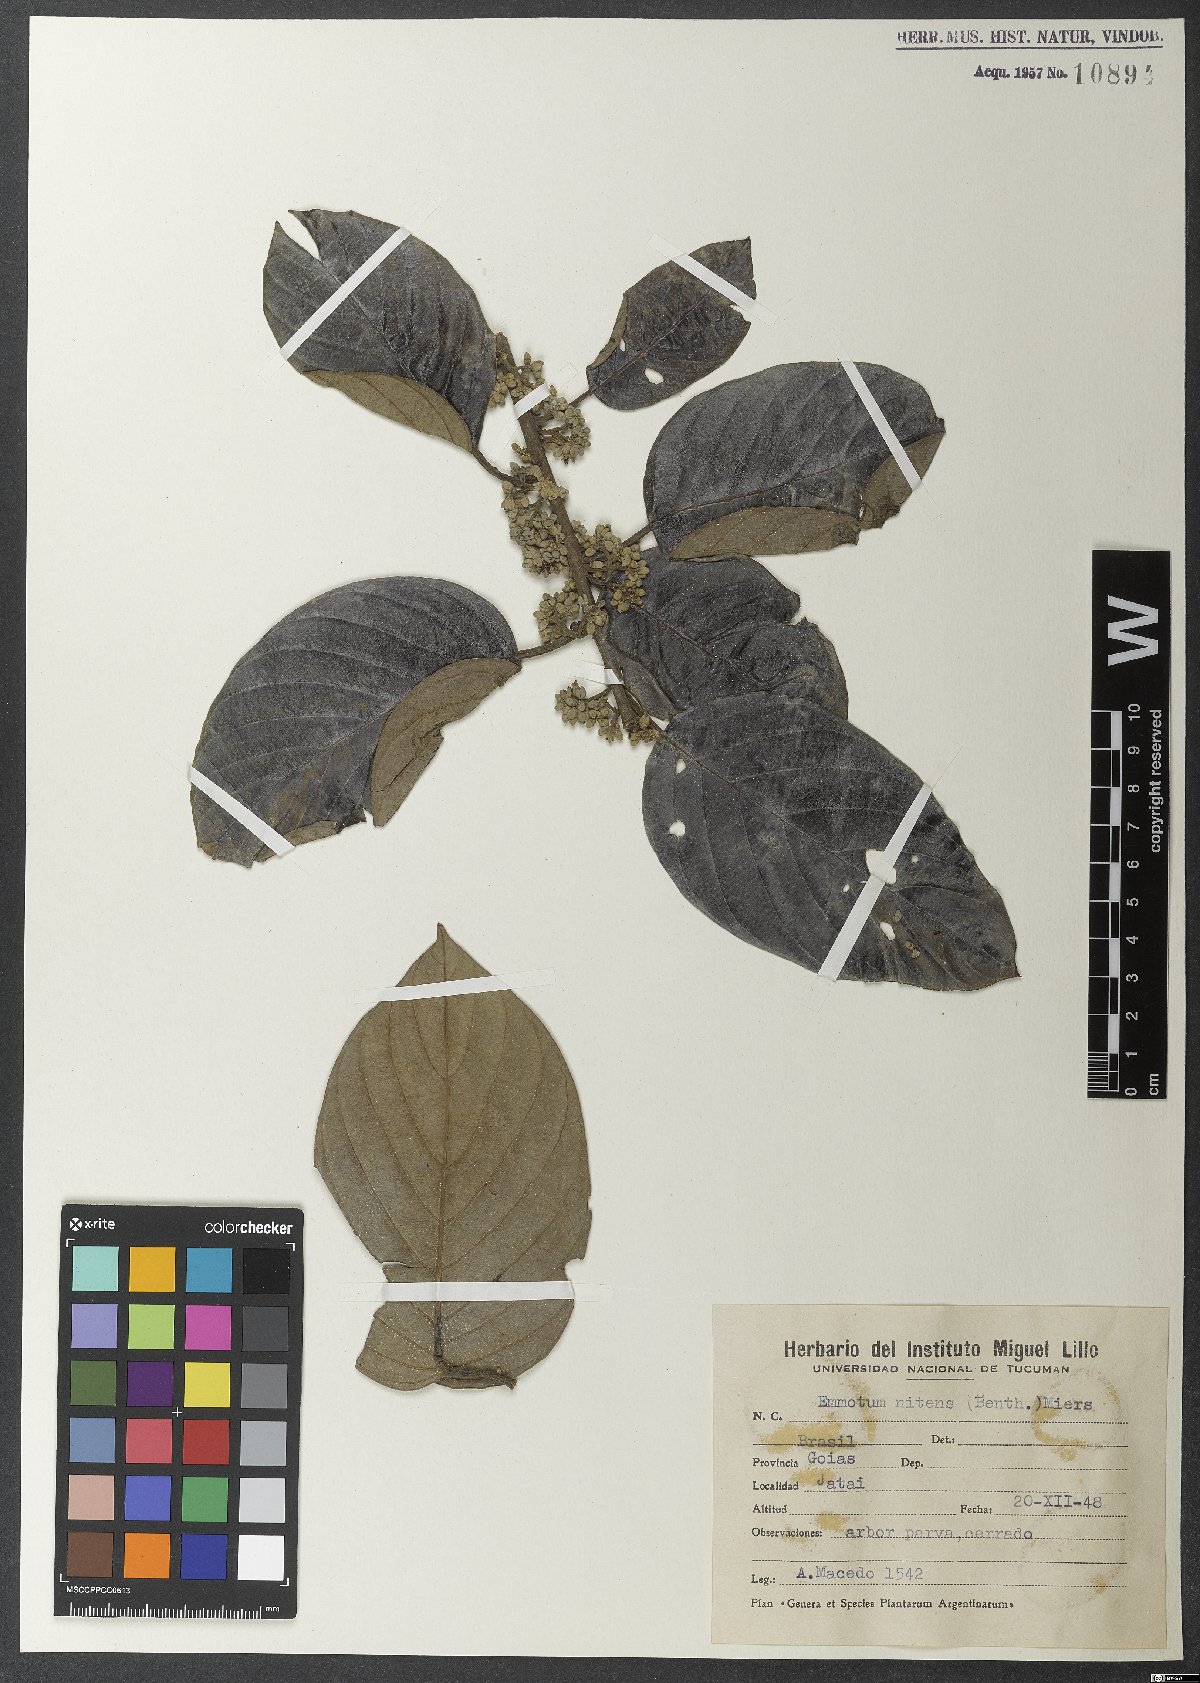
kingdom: Plantae
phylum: Tracheophyta
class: Magnoliopsida
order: Metteniusales
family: Metteniusaceae
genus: Emmotum
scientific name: Emmotum nitens
